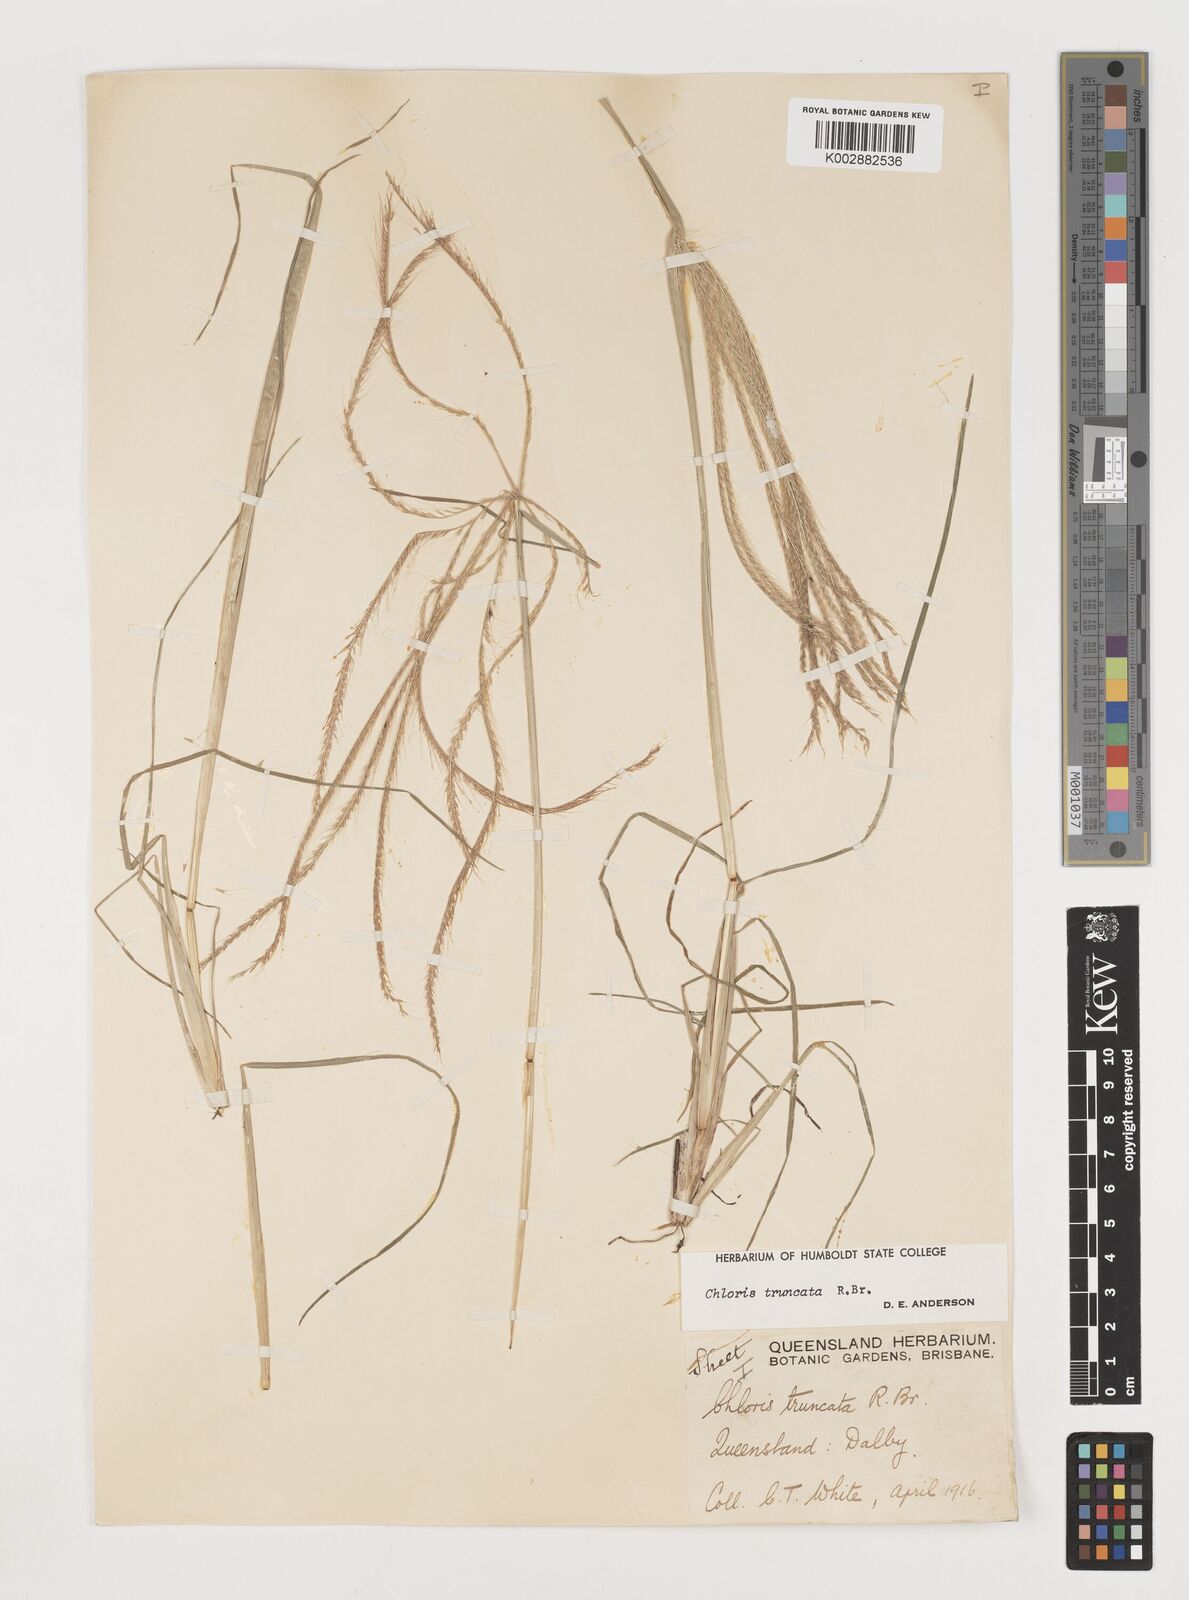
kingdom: Plantae
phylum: Tracheophyta
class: Liliopsida
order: Poales
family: Poaceae
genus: Chloris
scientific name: Chloris truncata
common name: Windmill-grass
